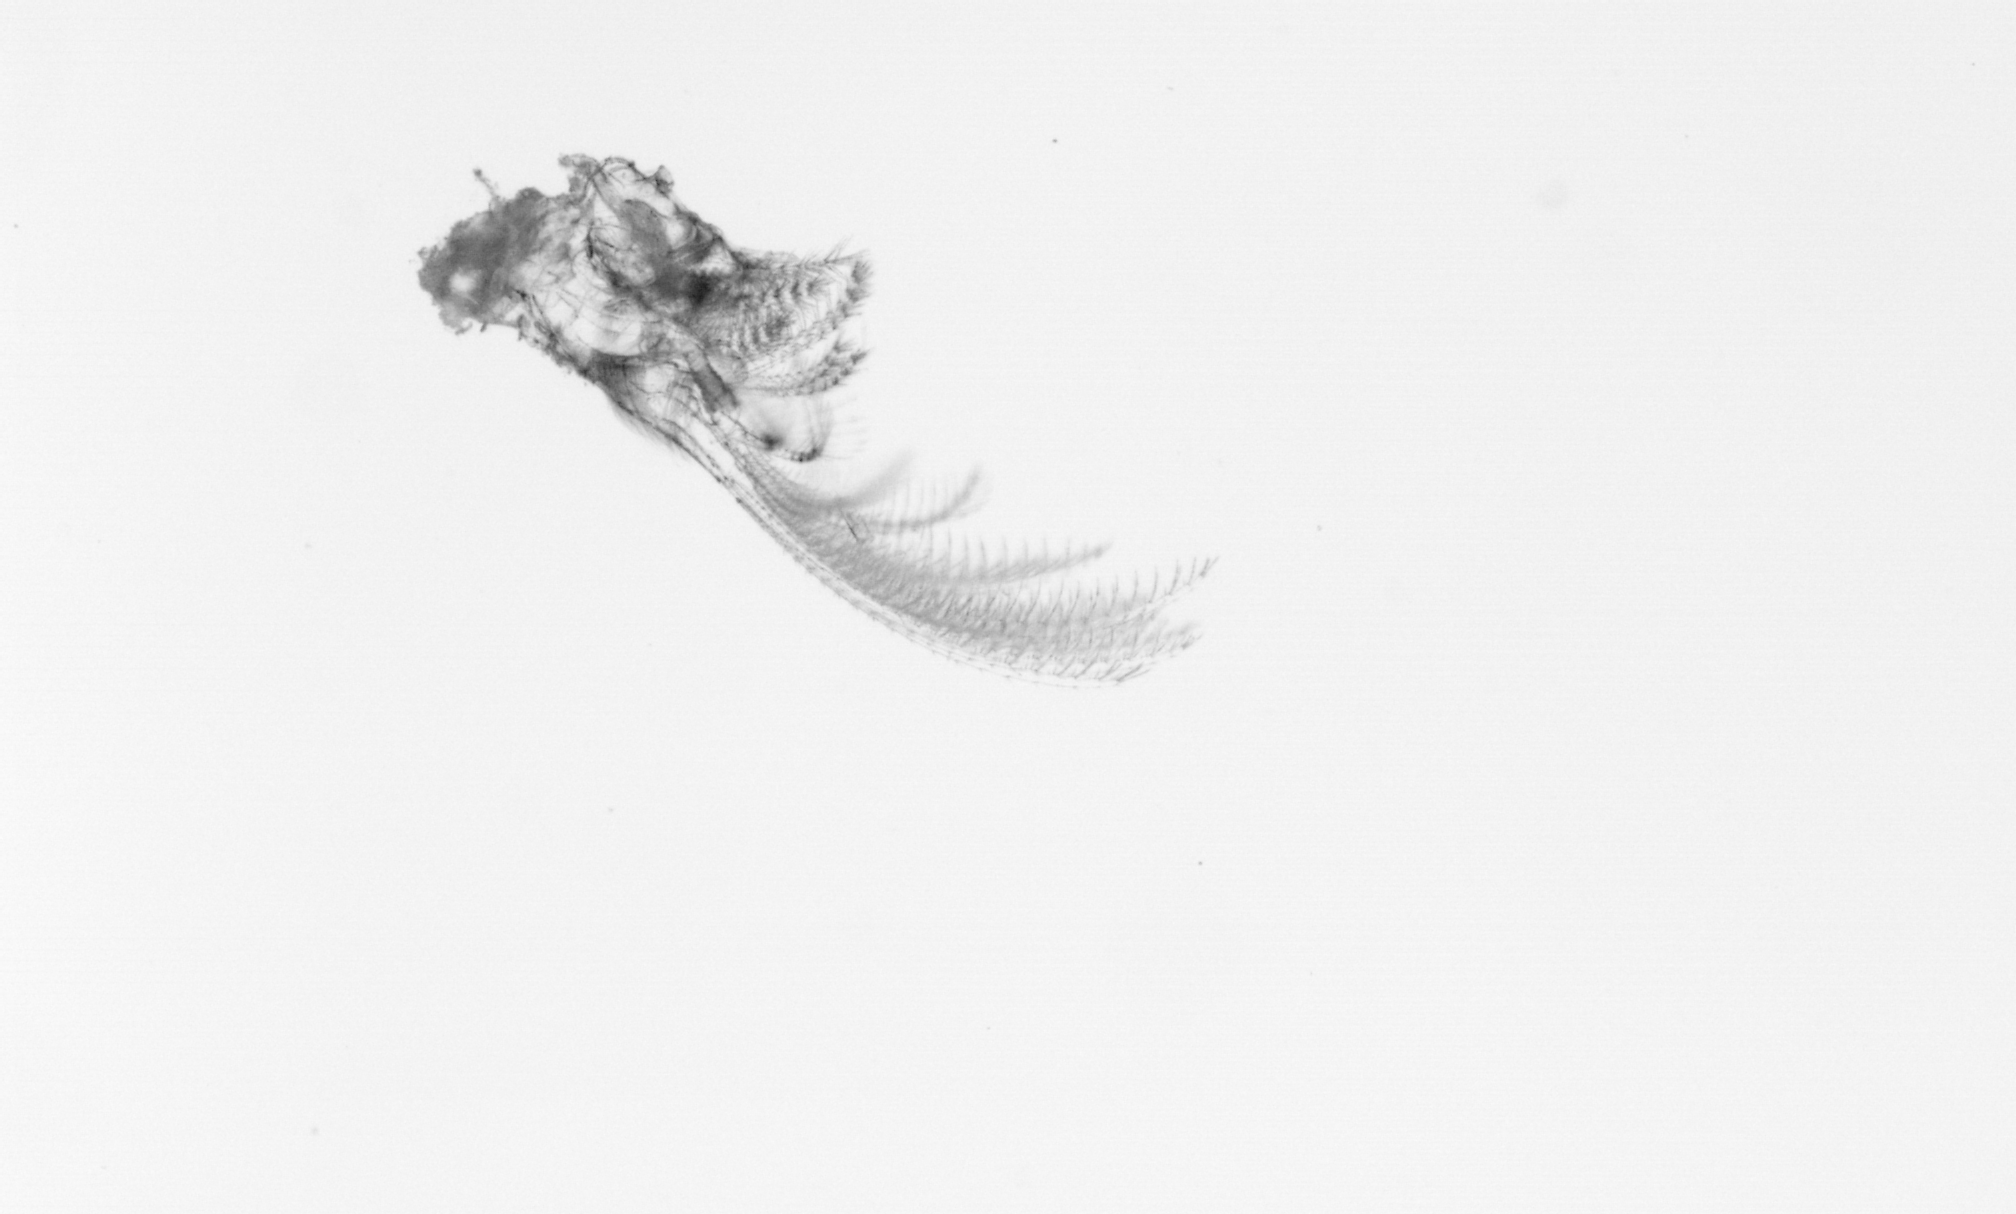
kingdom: Animalia
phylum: Arthropoda
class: Maxillopoda
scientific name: Maxillopoda
